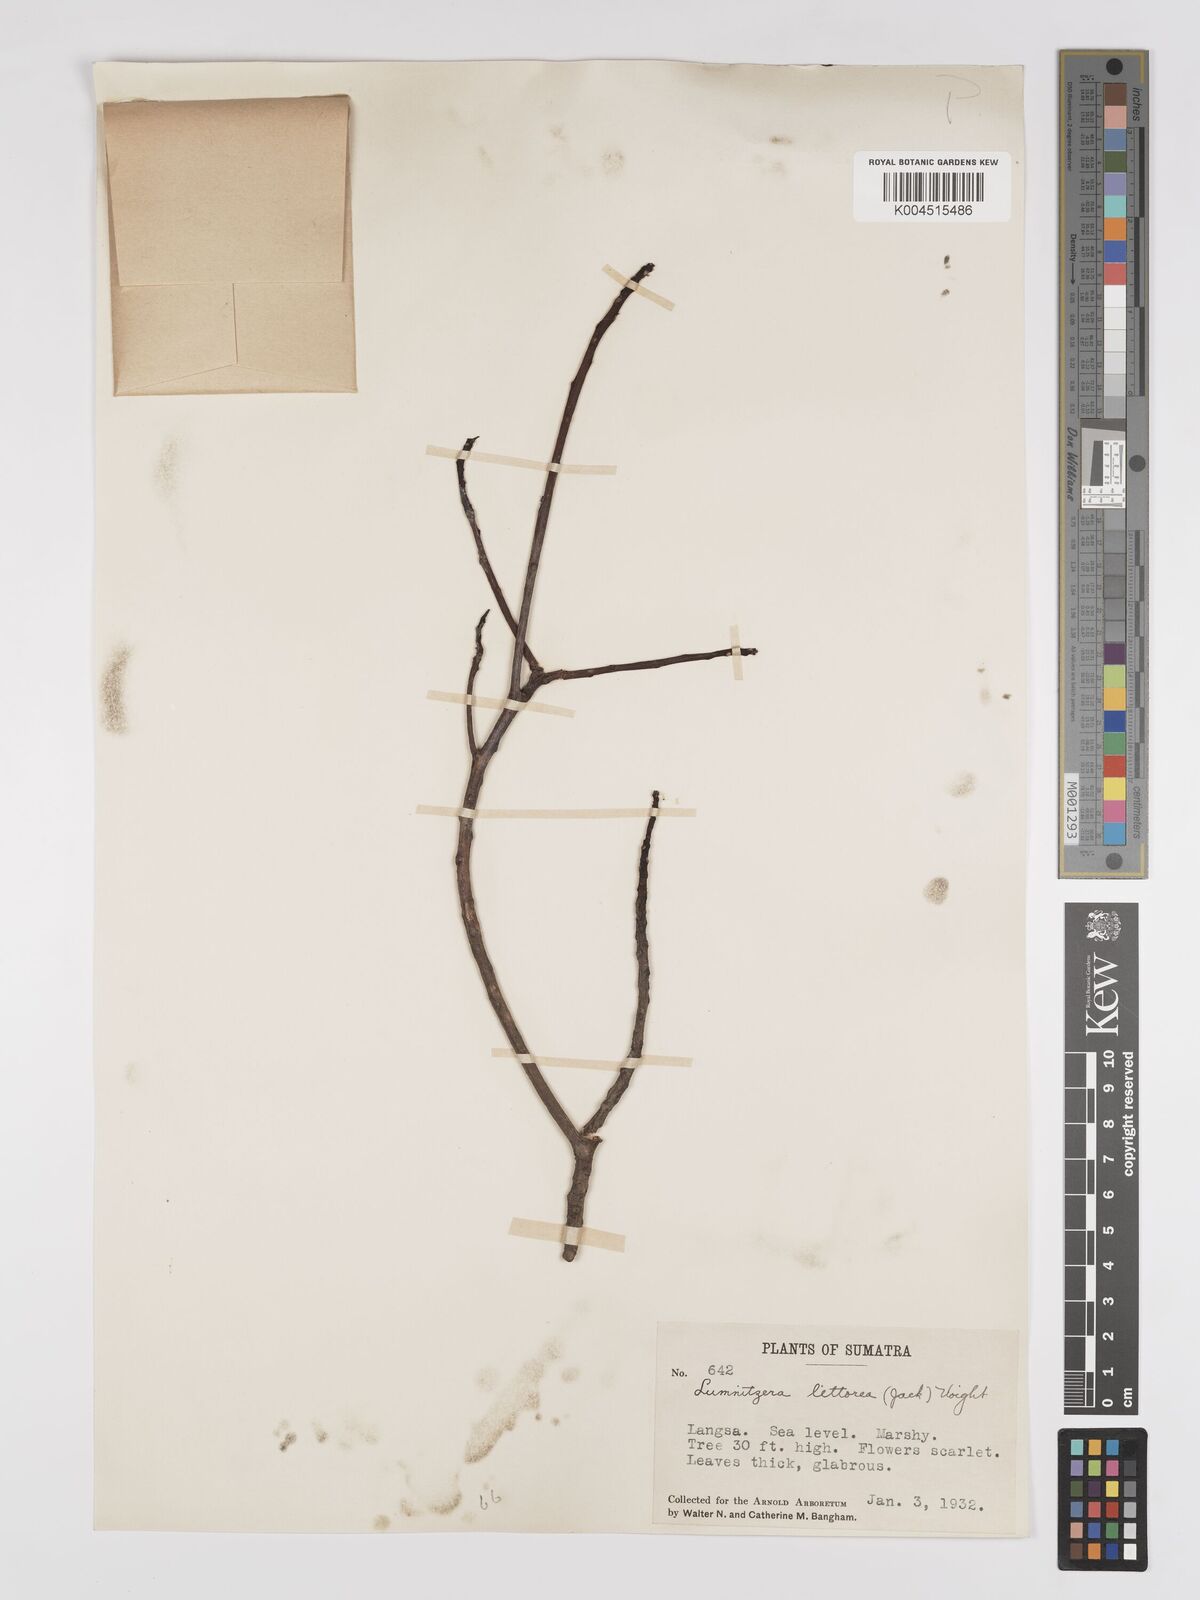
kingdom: Plantae
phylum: Tracheophyta
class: Magnoliopsida
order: Myrtales
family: Combretaceae
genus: Lumnitzera
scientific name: Lumnitzera littorea
